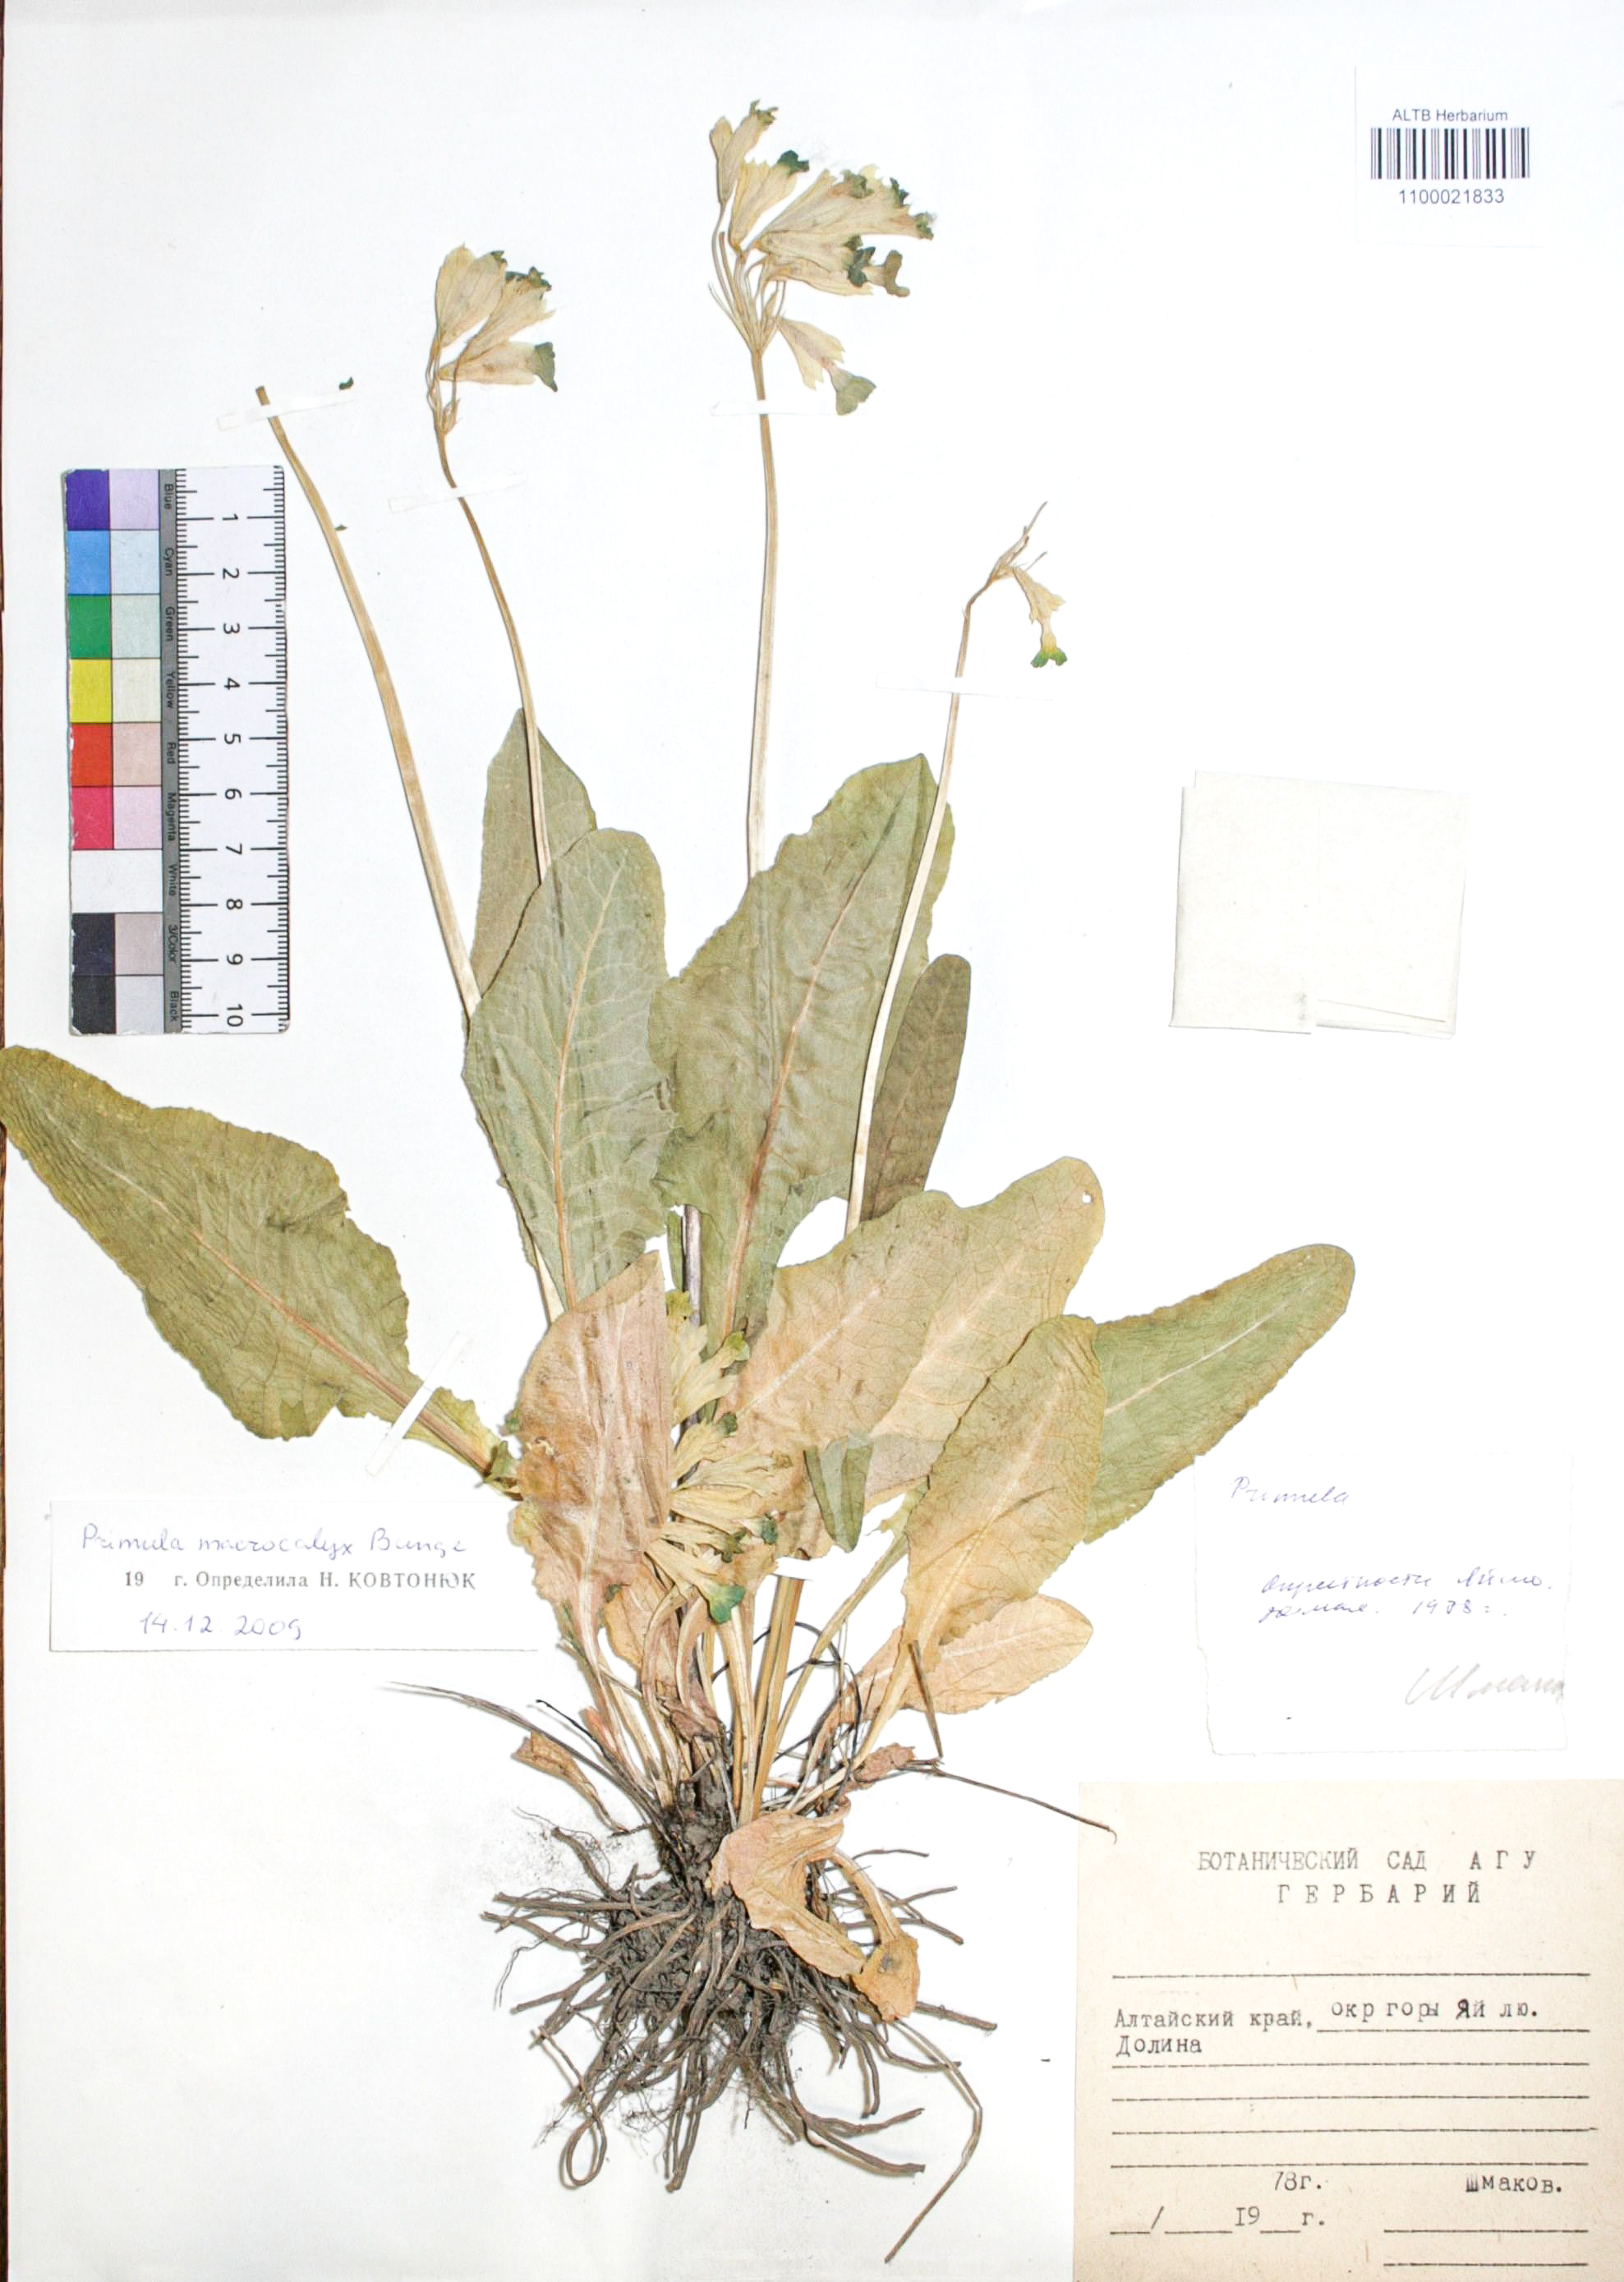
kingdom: Plantae
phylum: Tracheophyta
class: Magnoliopsida
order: Ericales
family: Primulaceae
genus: Primula
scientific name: Primula veris
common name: Cowslip
